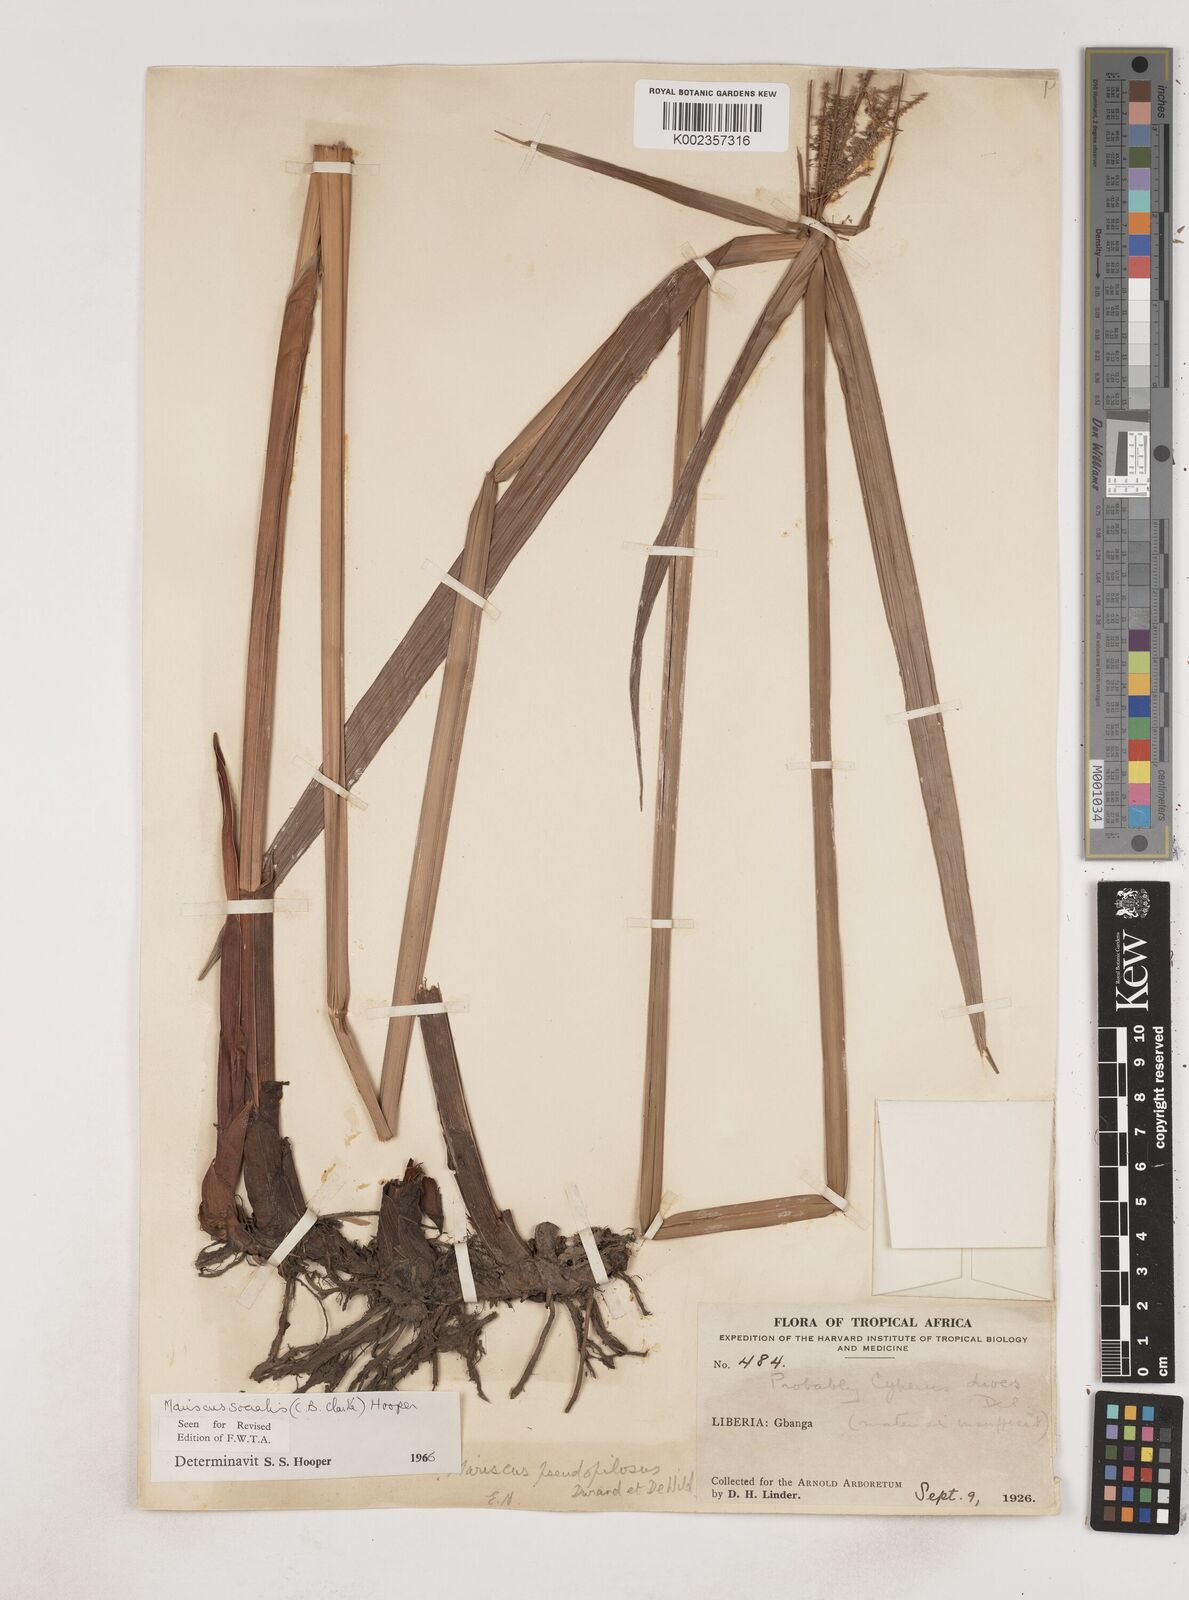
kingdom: Plantae
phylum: Tracheophyta
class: Liliopsida
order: Poales
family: Cyperaceae
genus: Cyperus
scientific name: Cyperus pseudopilosus
